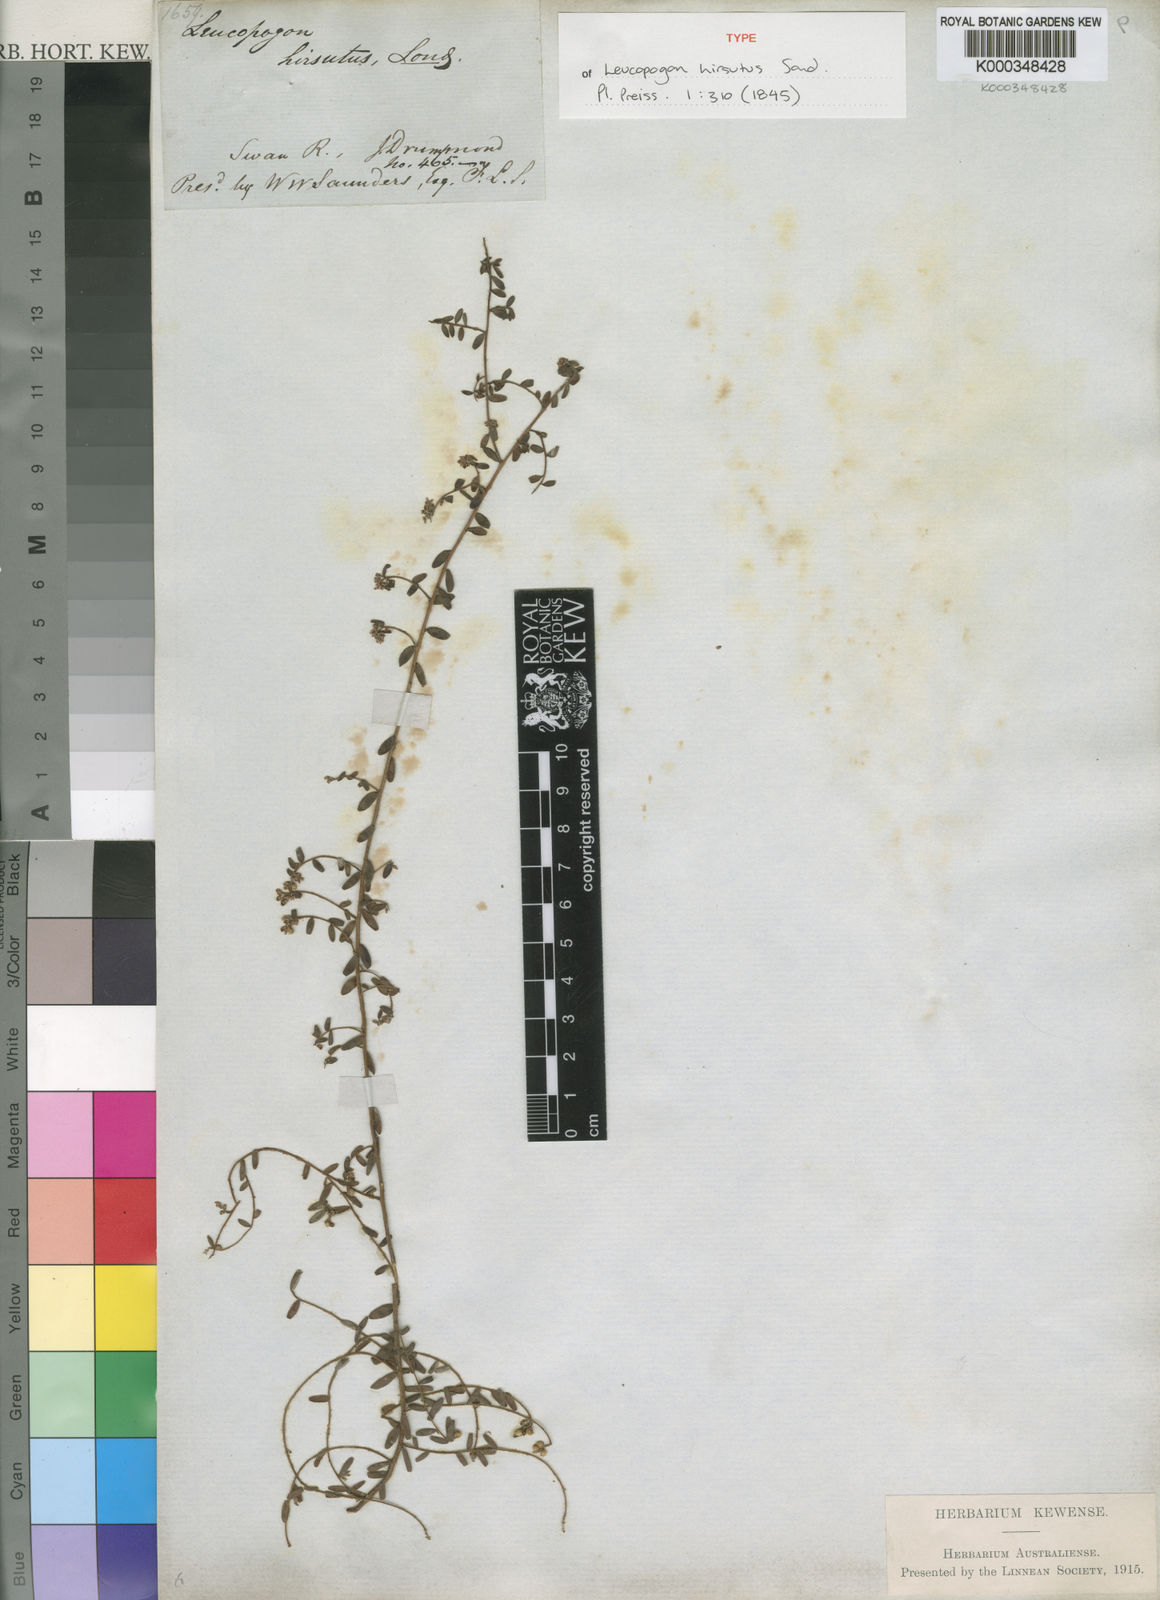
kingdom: Plantae
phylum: Tracheophyta
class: Magnoliopsida
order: Ericales
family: Ericaceae
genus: Leucopogon
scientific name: Leucopogon hirsutus
